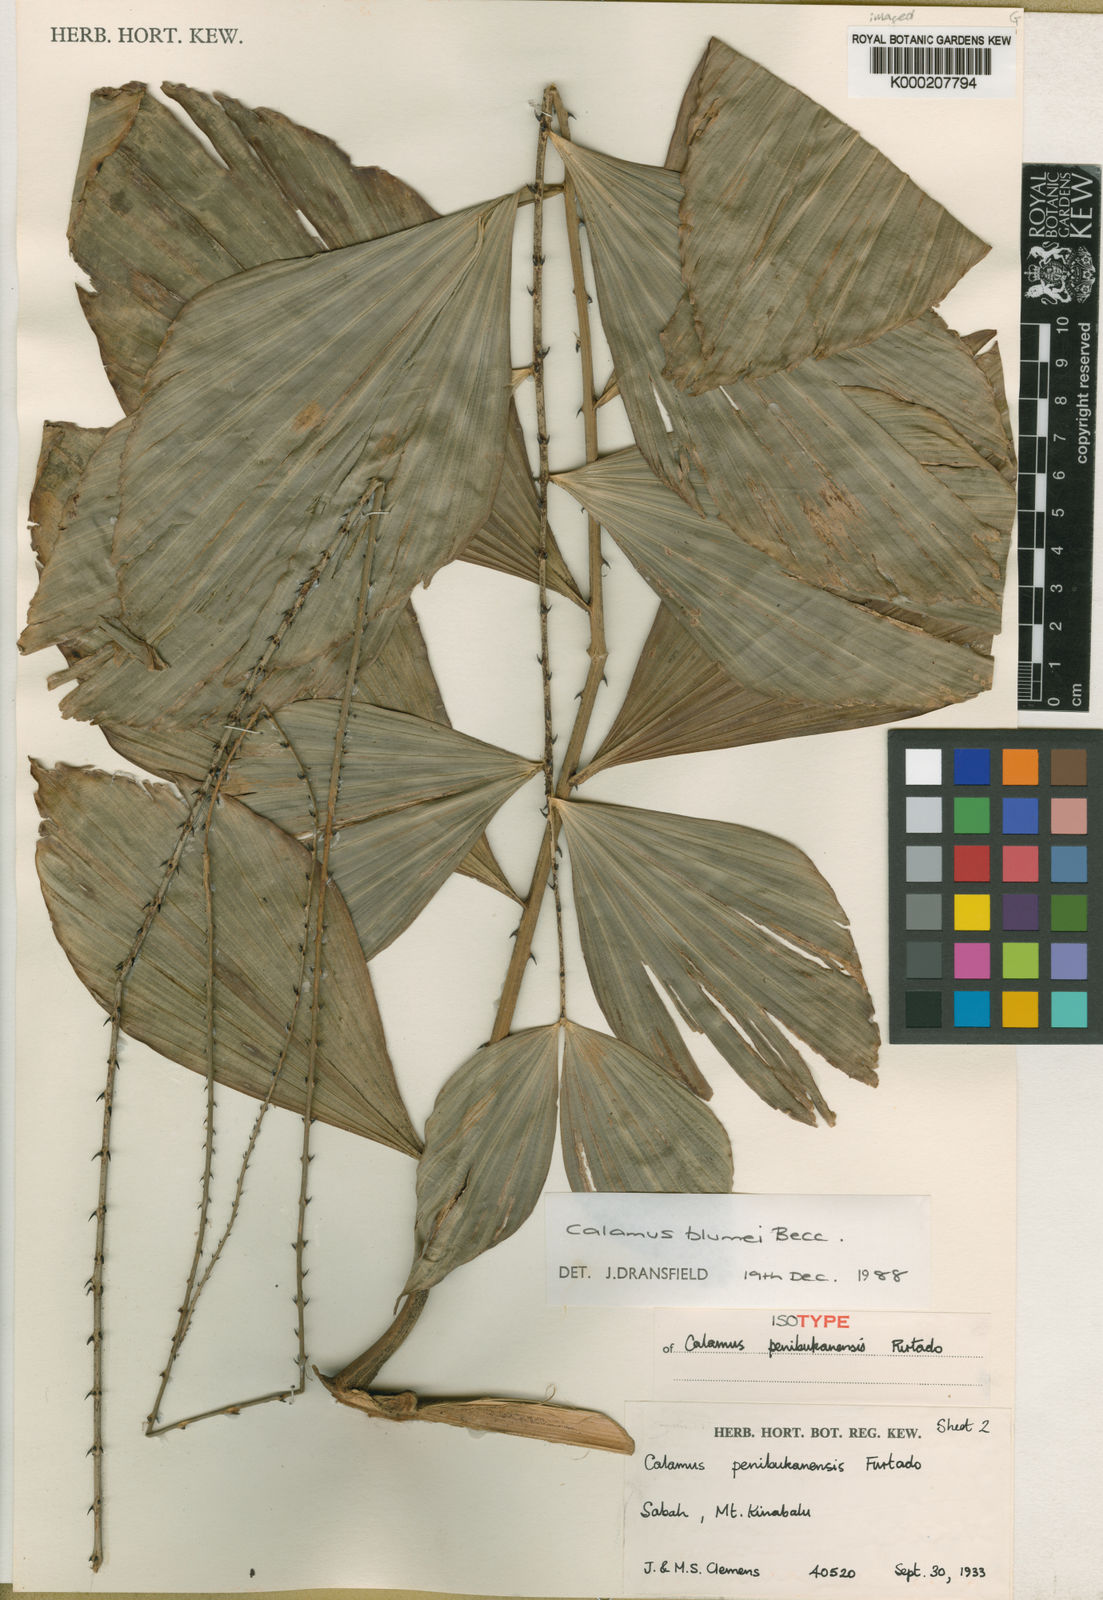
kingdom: Plantae
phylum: Tracheophyta
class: Liliopsida
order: Arecales
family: Arecaceae
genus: Calamus
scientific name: Calamus rhomboideus
